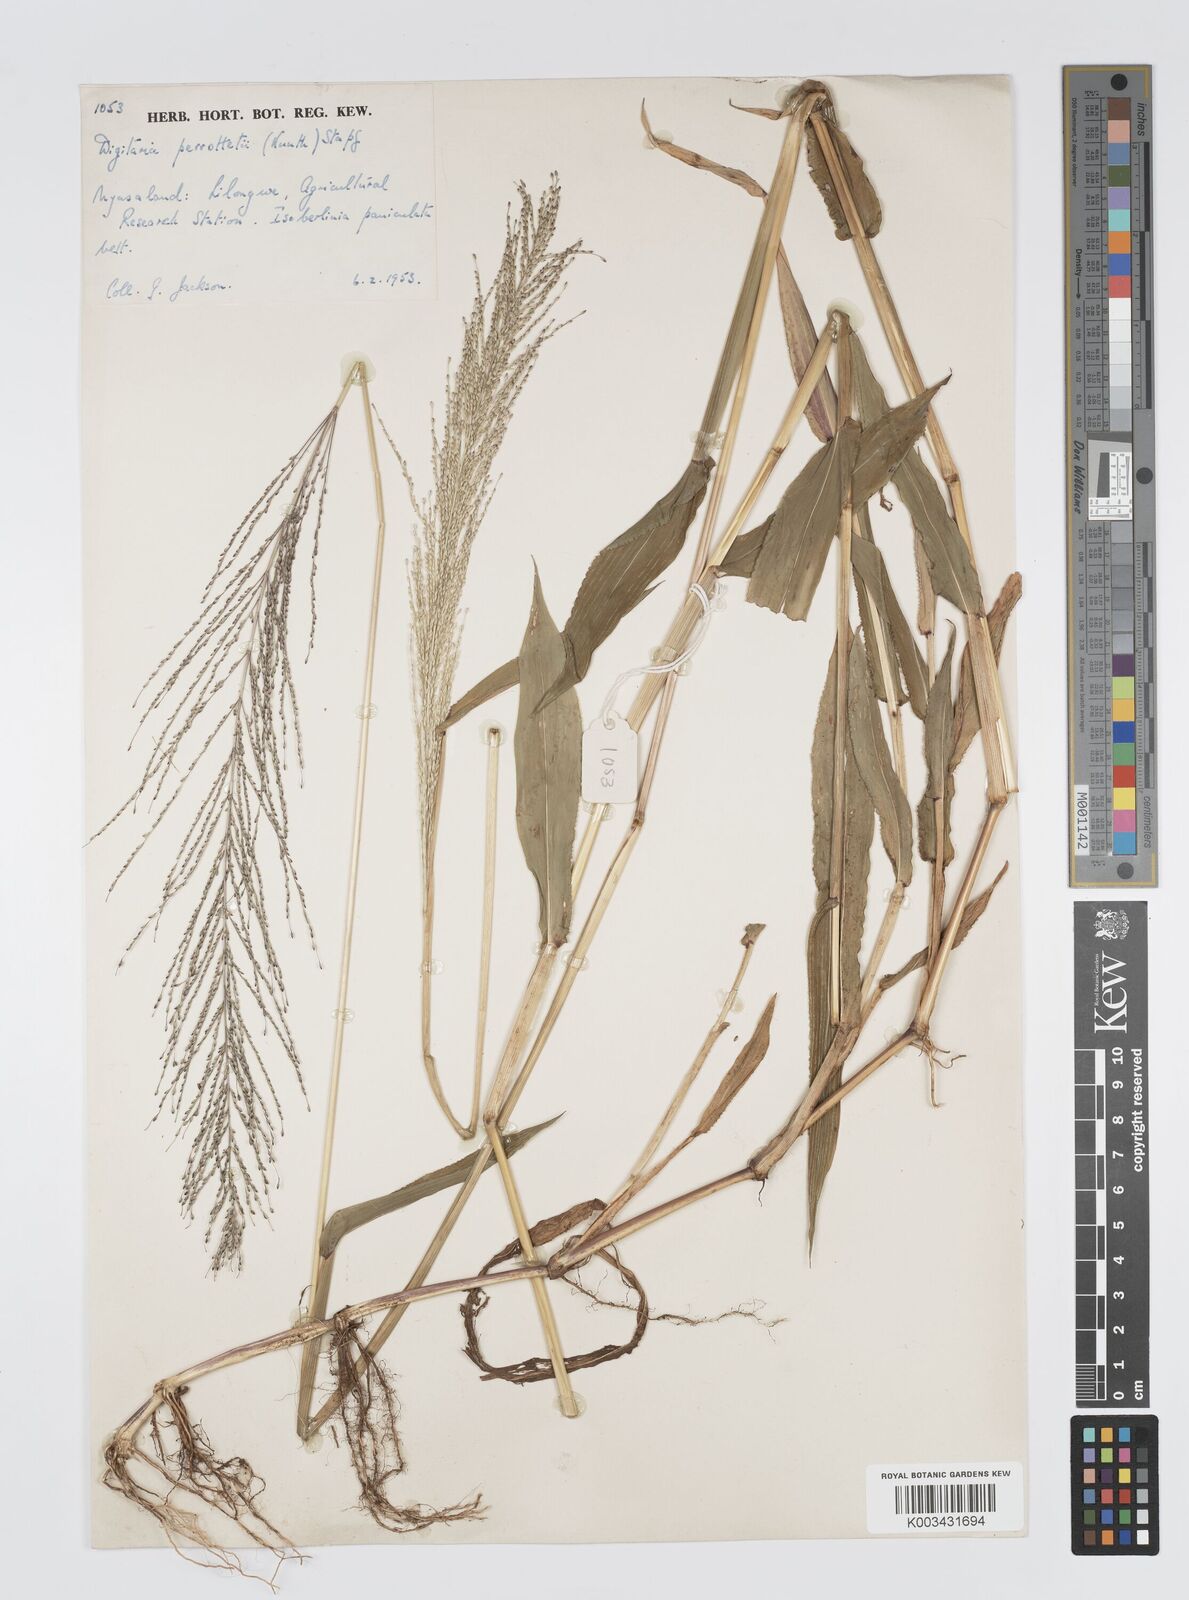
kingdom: Plantae
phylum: Tracheophyta
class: Liliopsida
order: Poales
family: Poaceae
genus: Digitaria
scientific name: Digitaria perrottetii
